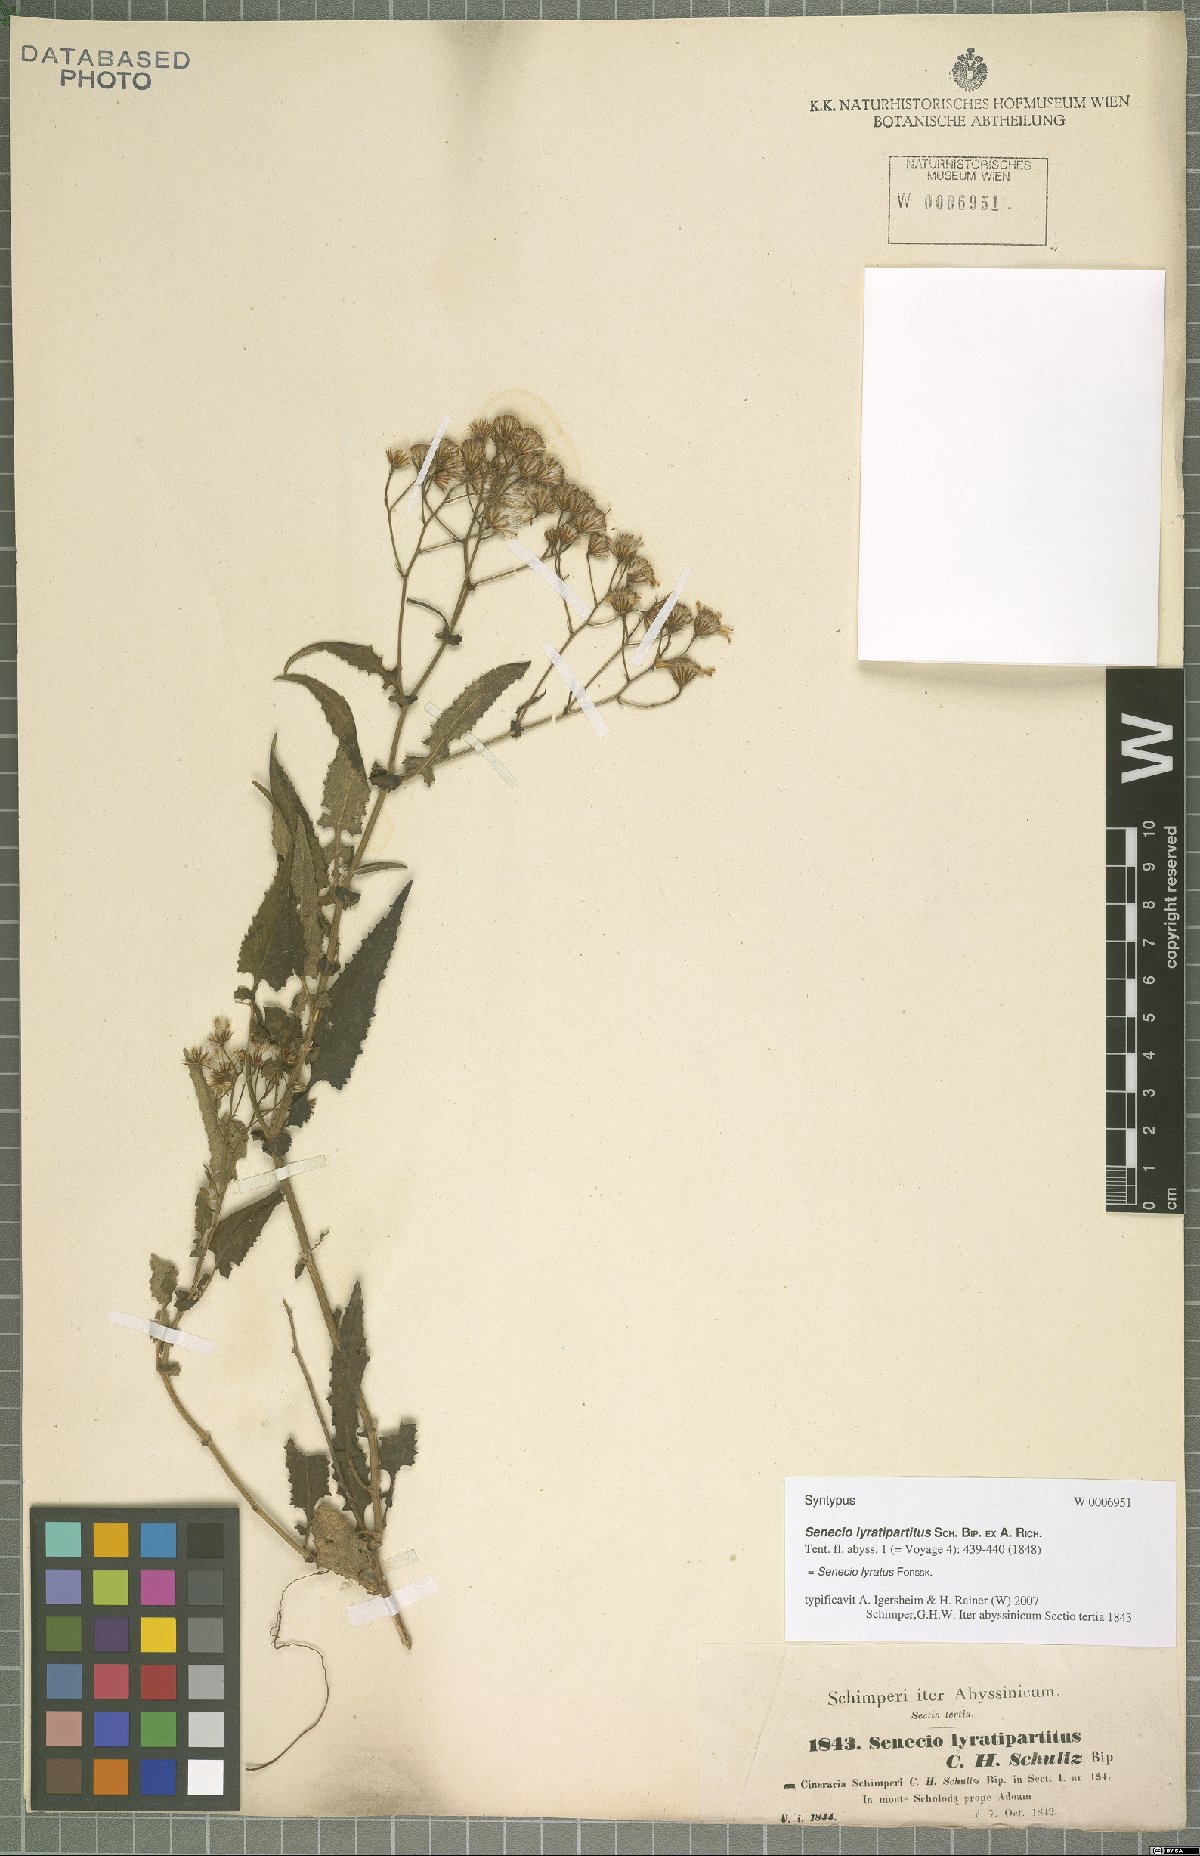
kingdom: Plantae
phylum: Tracheophyta
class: Magnoliopsida
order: Asterales
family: Asteraceae
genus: Senecio
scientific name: Senecio lyratus
